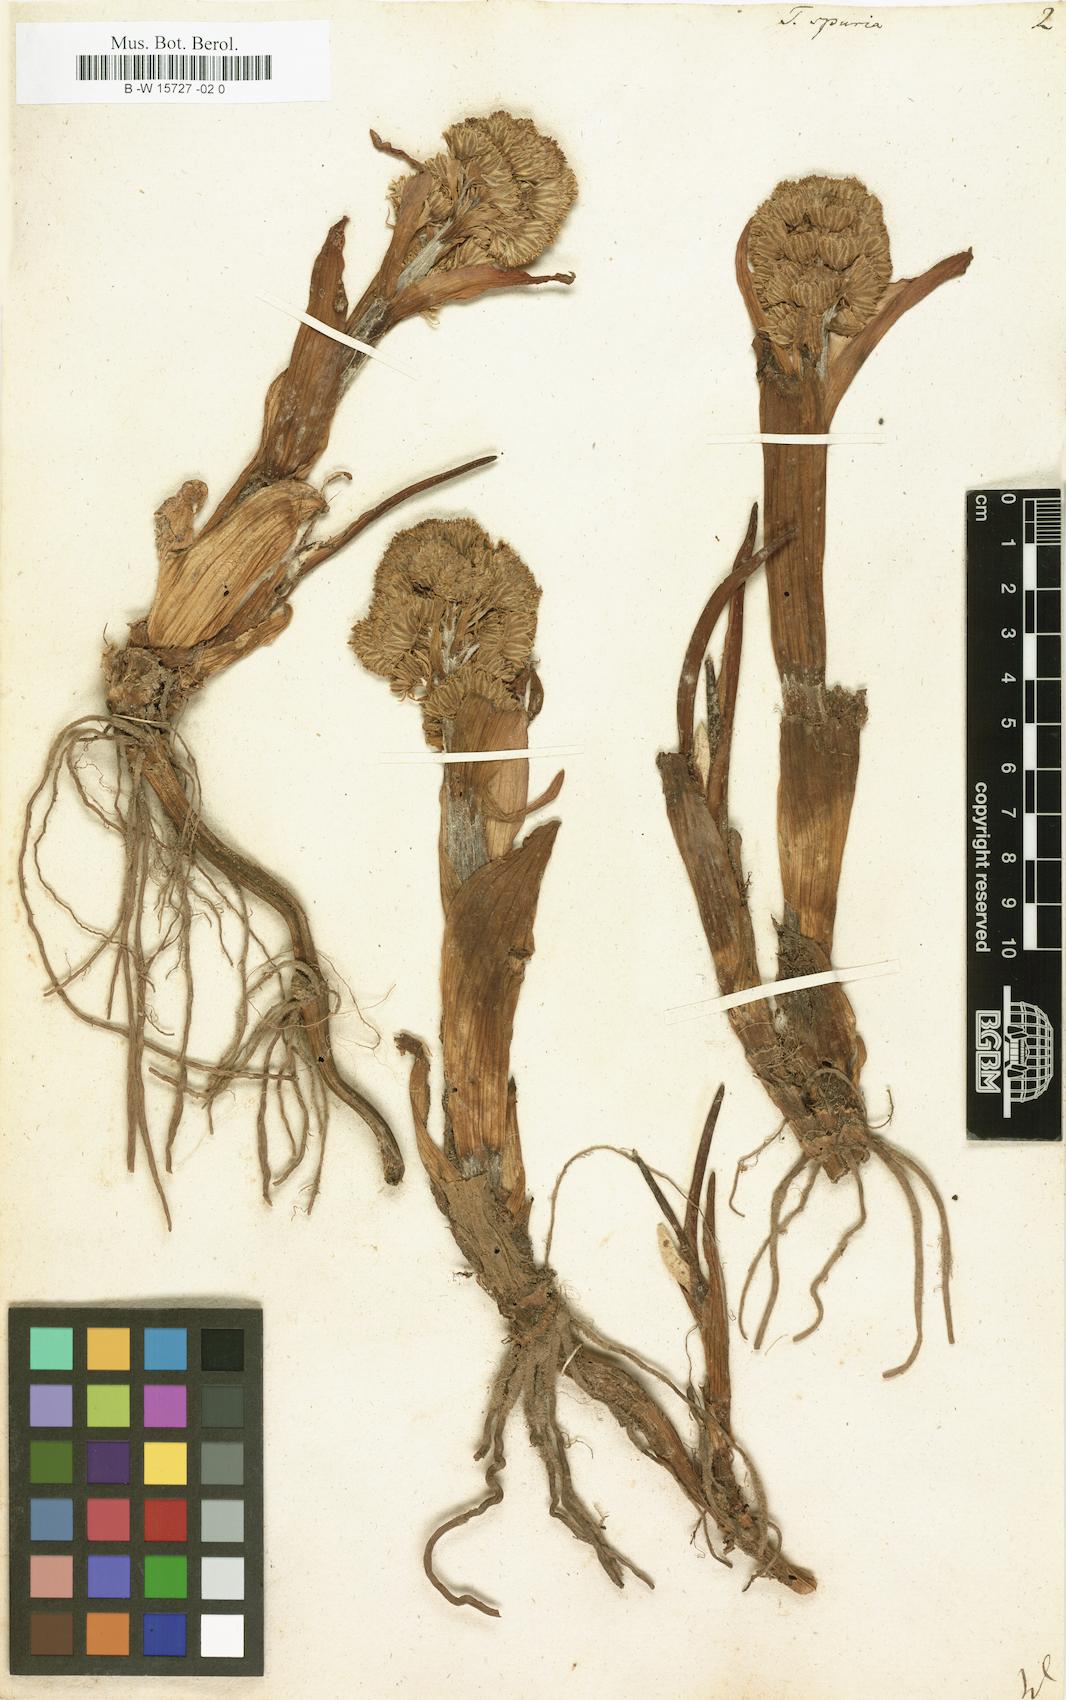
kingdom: Plantae
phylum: Tracheophyta
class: Magnoliopsida
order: Asterales
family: Asteraceae
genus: Petasites
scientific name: Petasites
